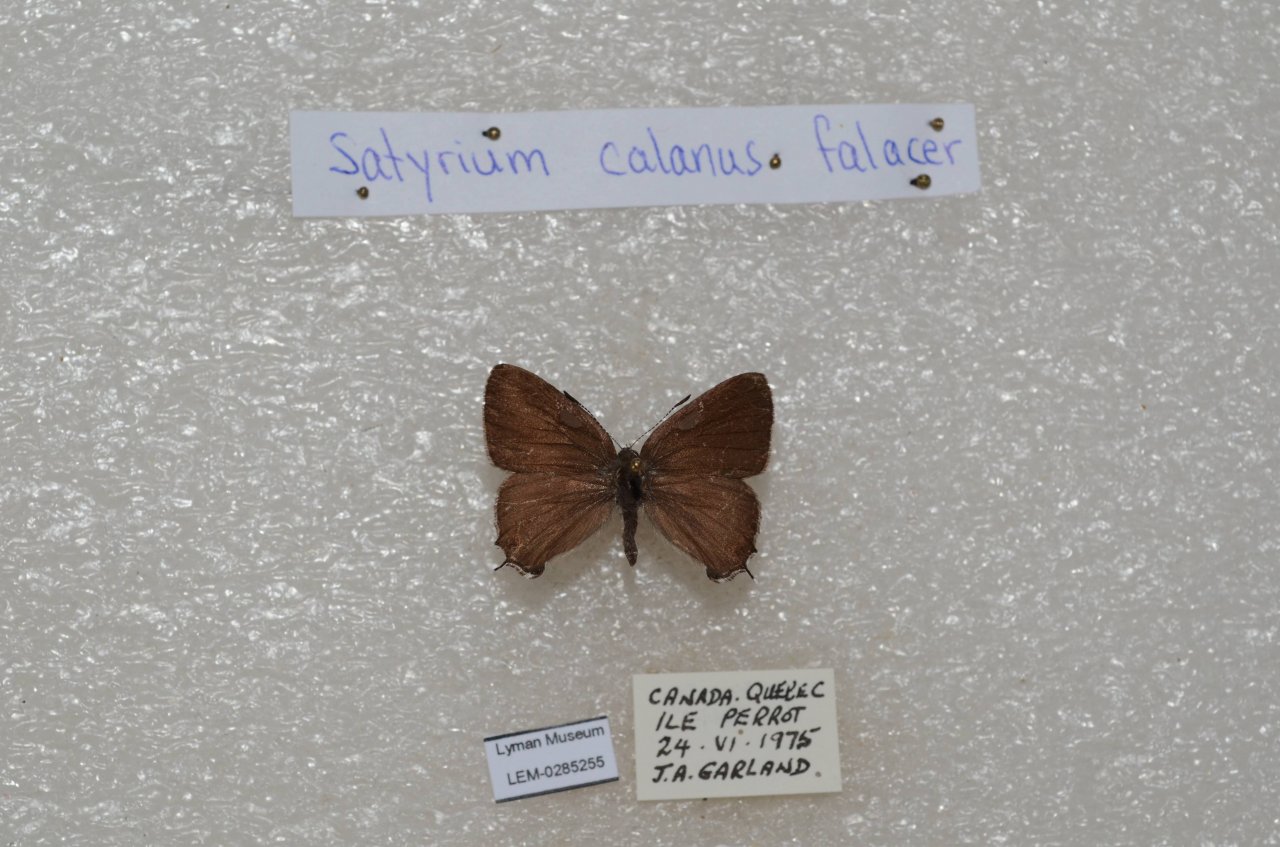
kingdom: Animalia
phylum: Arthropoda
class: Insecta
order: Lepidoptera
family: Lycaenidae
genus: Satyrium
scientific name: Satyrium calanus
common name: Banded Hairstreak
